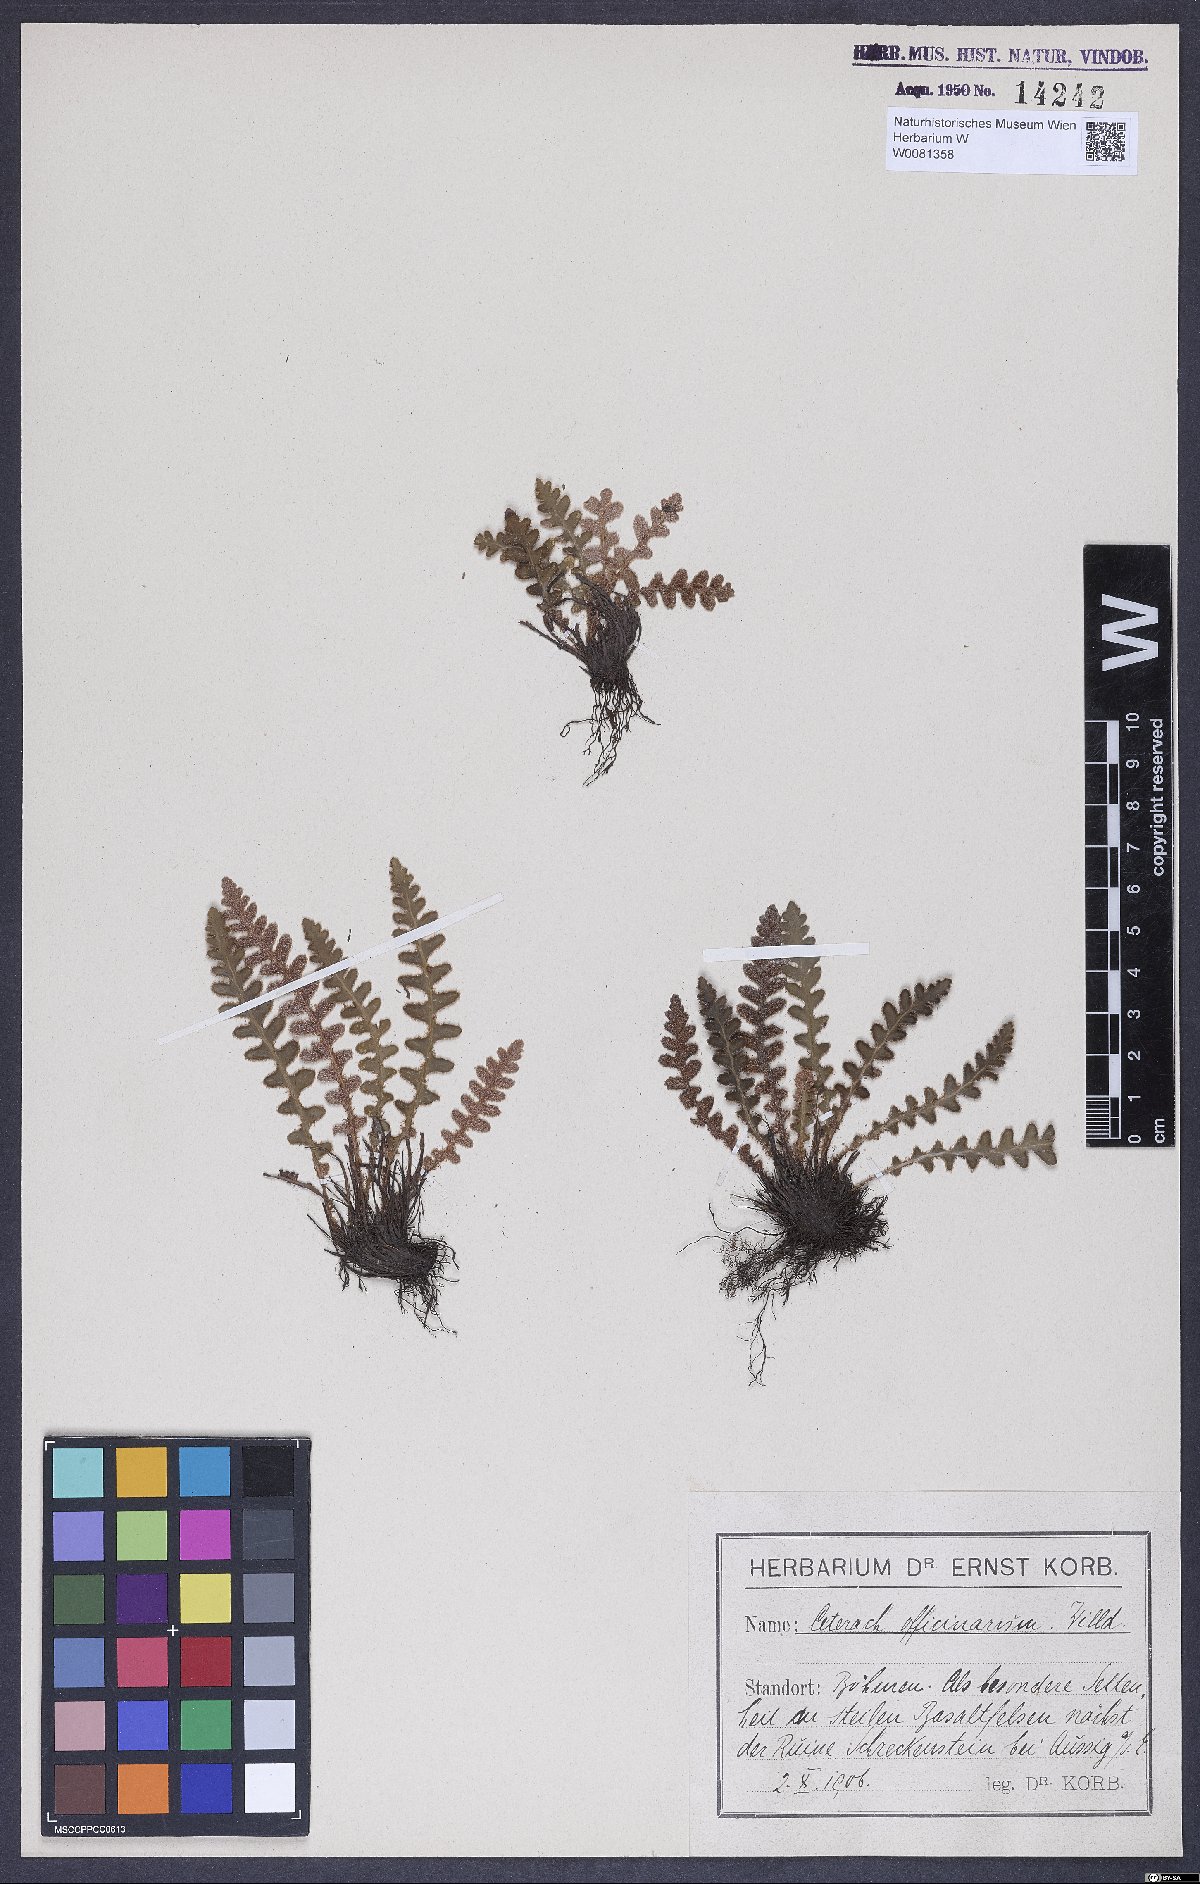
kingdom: Plantae
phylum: Tracheophyta
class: Polypodiopsida
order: Polypodiales
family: Aspleniaceae
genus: Asplenium
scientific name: Asplenium ceterach
